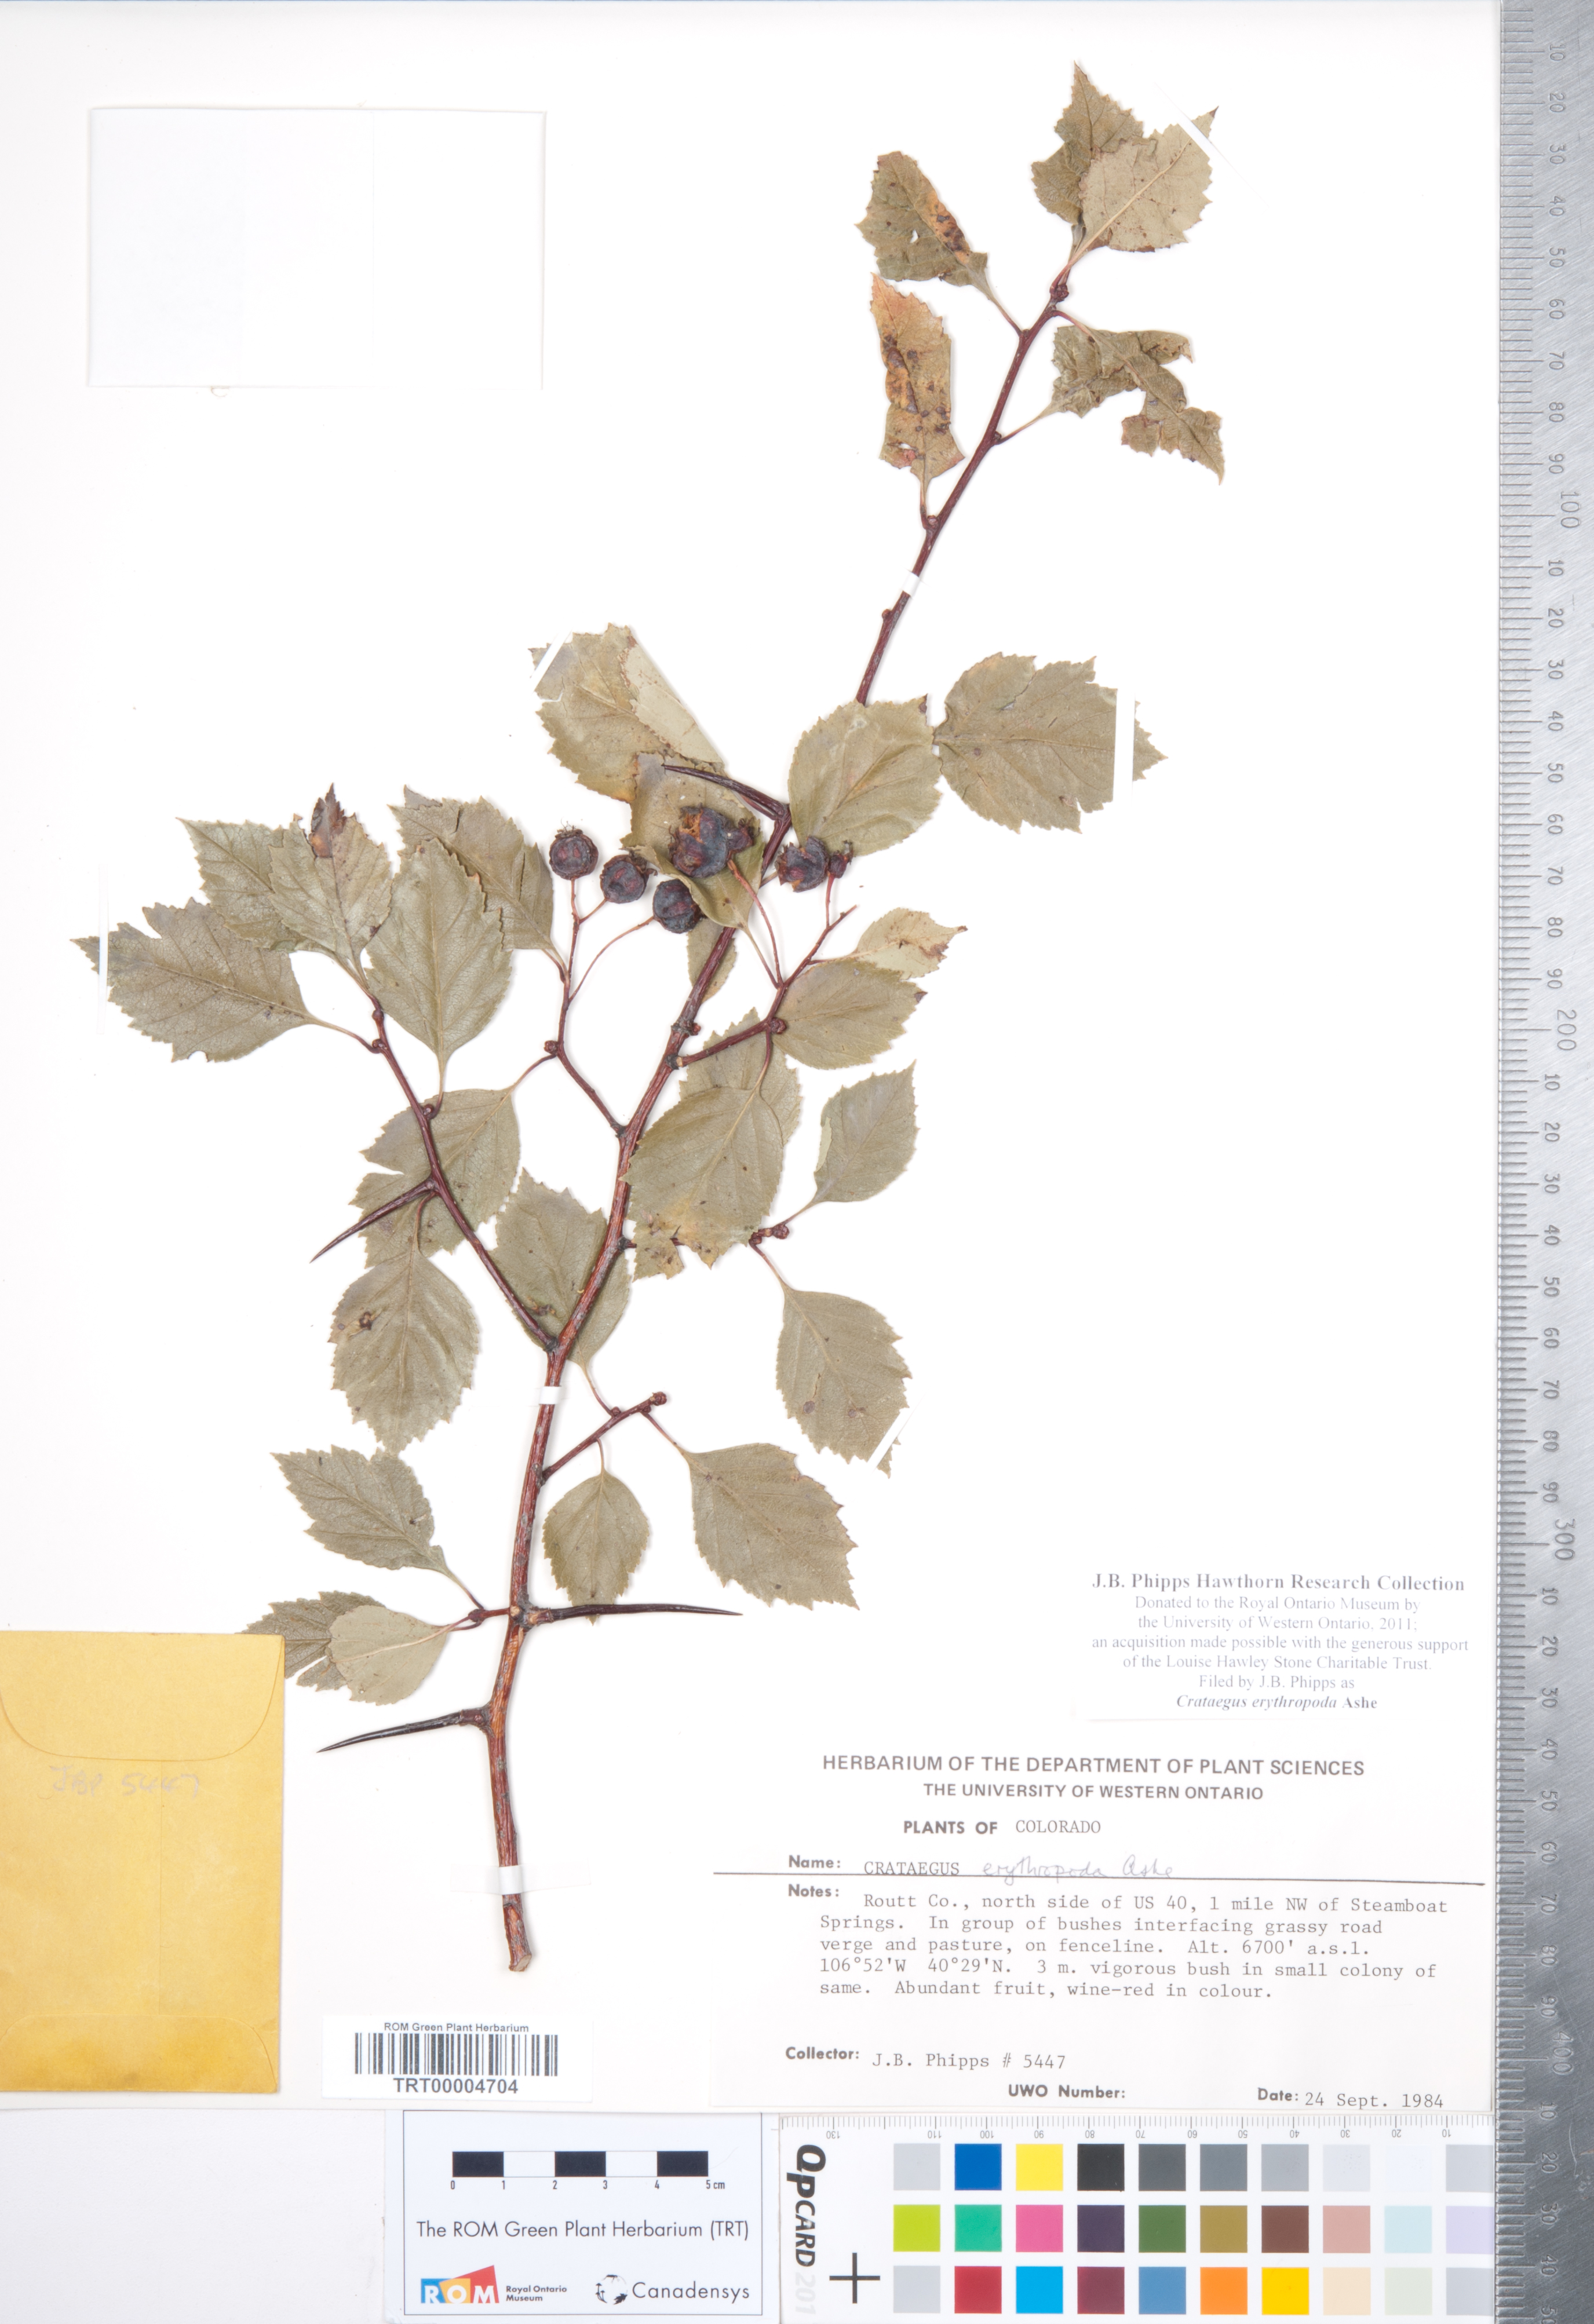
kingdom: Plantae
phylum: Tracheophyta
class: Magnoliopsida
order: Rosales
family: Rosaceae
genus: Crataegus
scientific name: Crataegus erythropoda
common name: Cerro hawthorn
